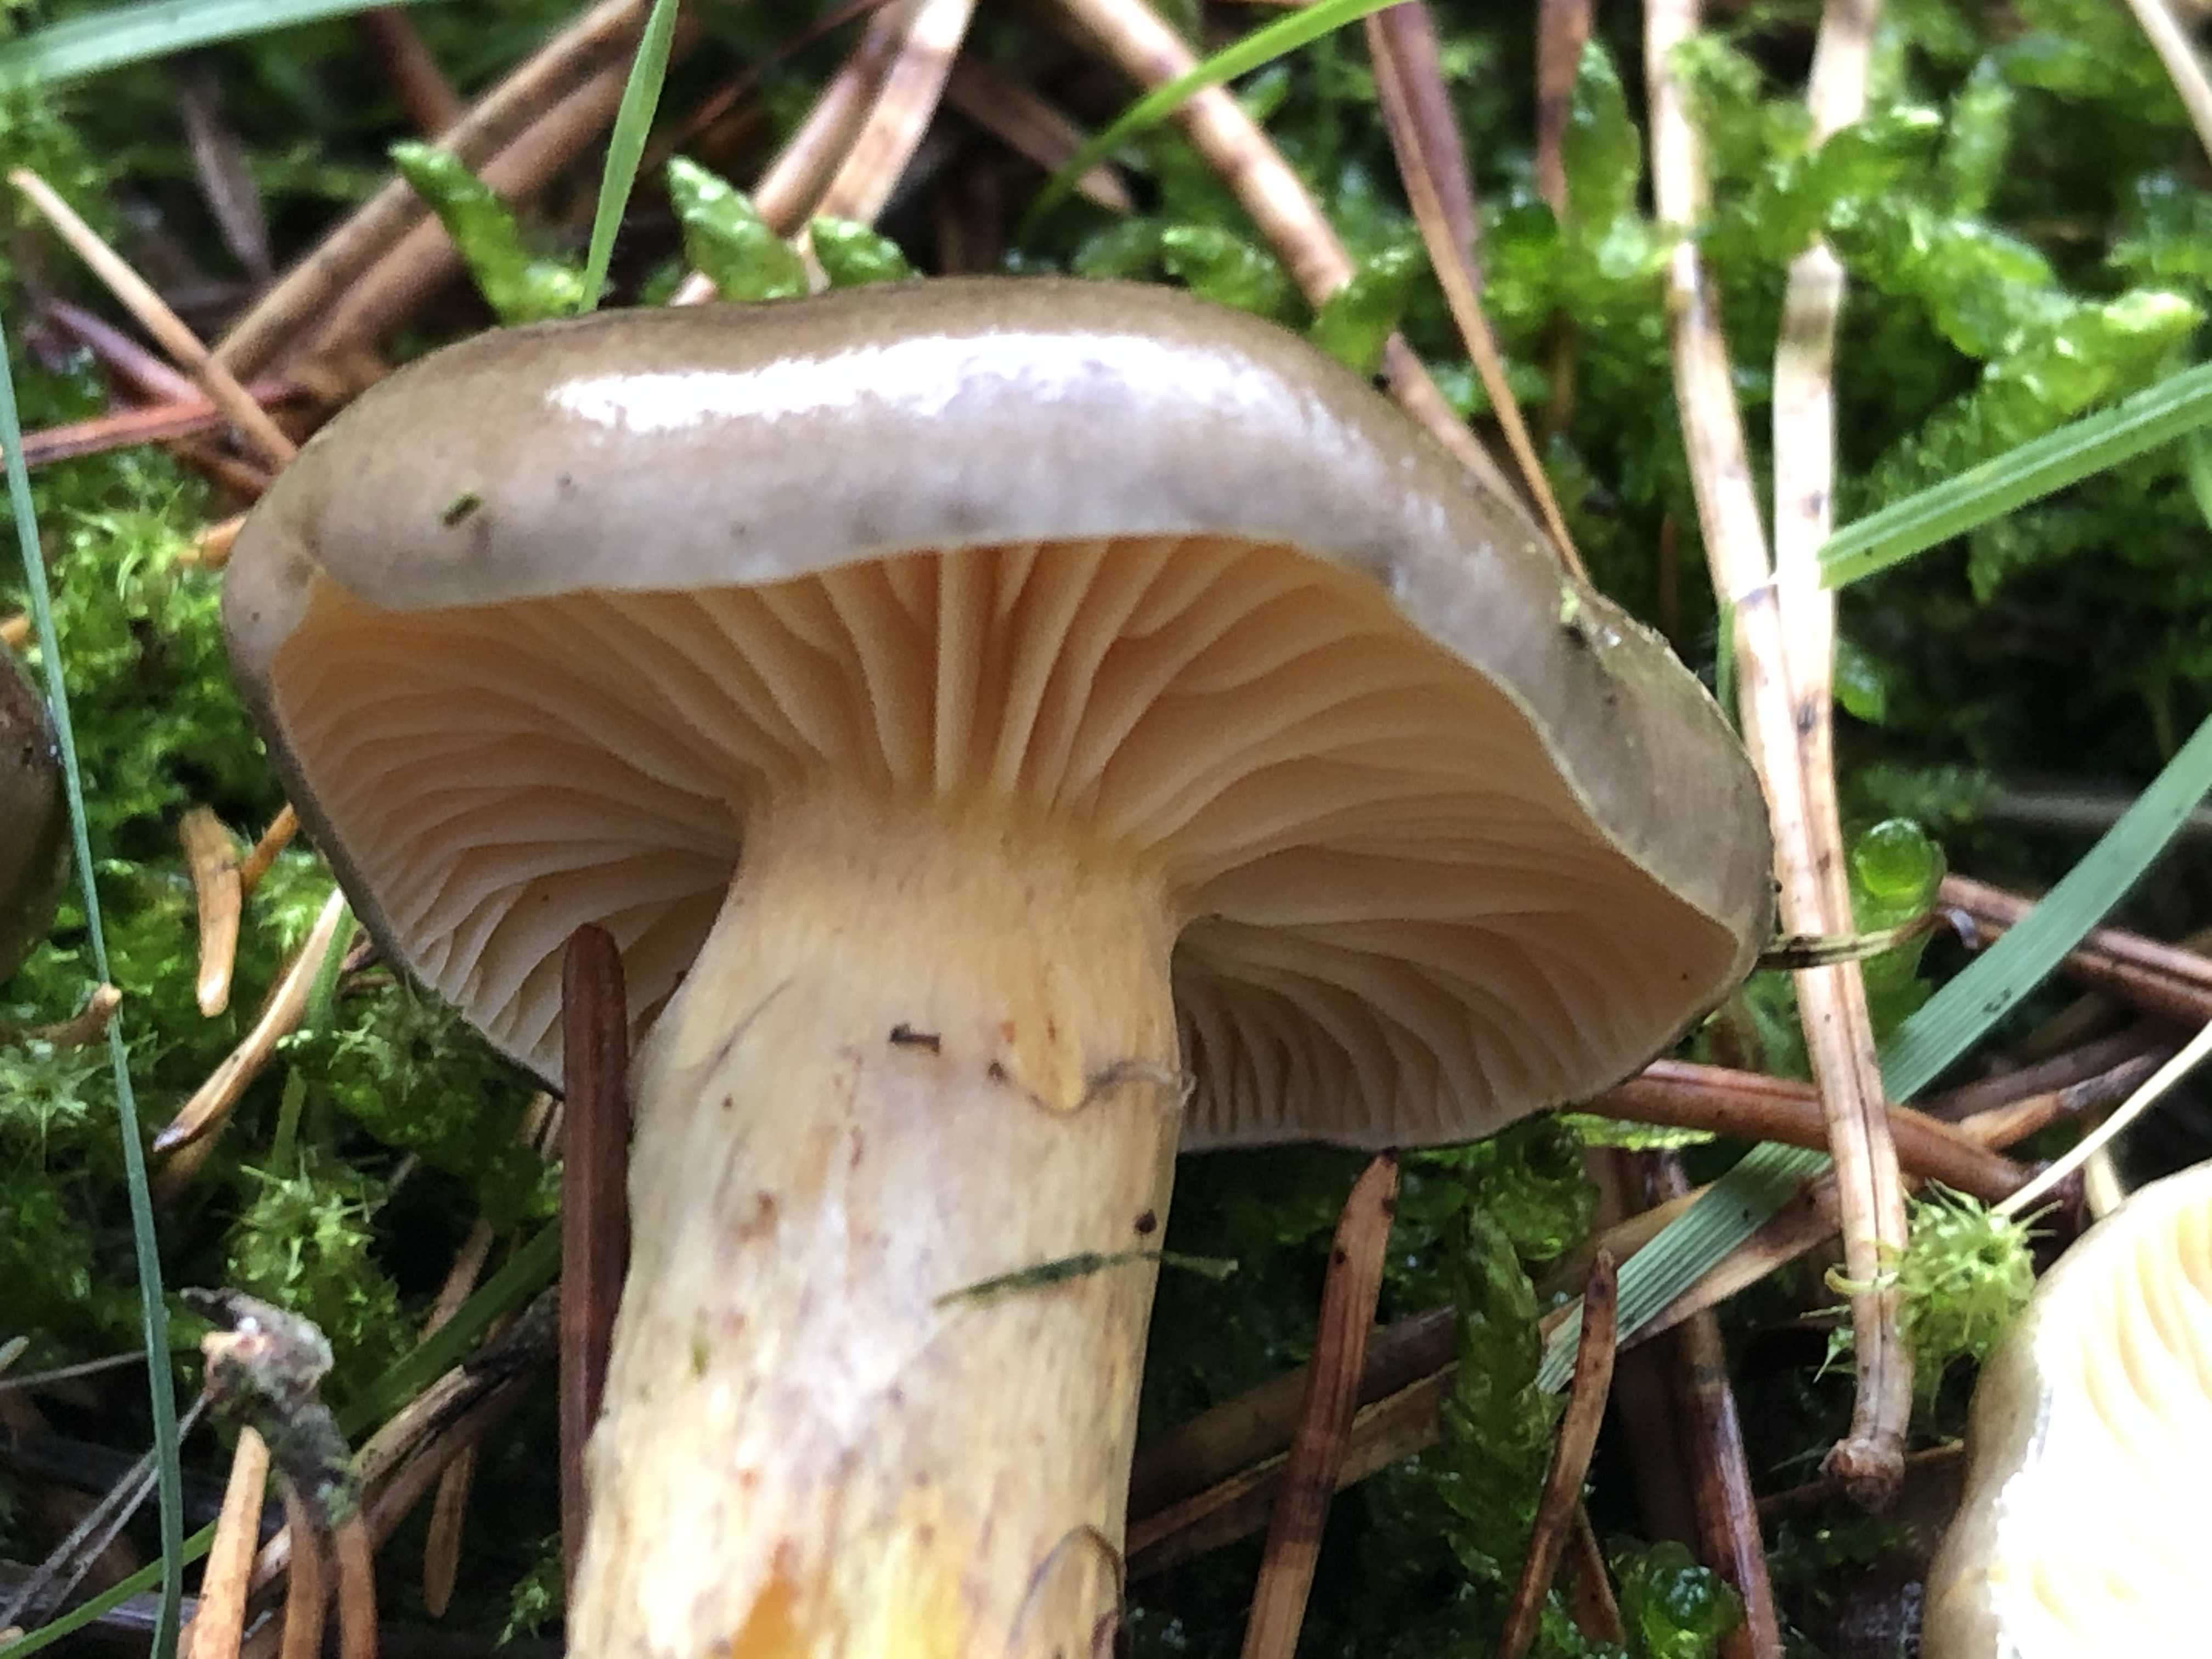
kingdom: Fungi
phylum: Basidiomycota
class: Agaricomycetes
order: Agaricales
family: Hygrophoraceae
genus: Hygrophorus
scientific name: Hygrophorus hypothejus
